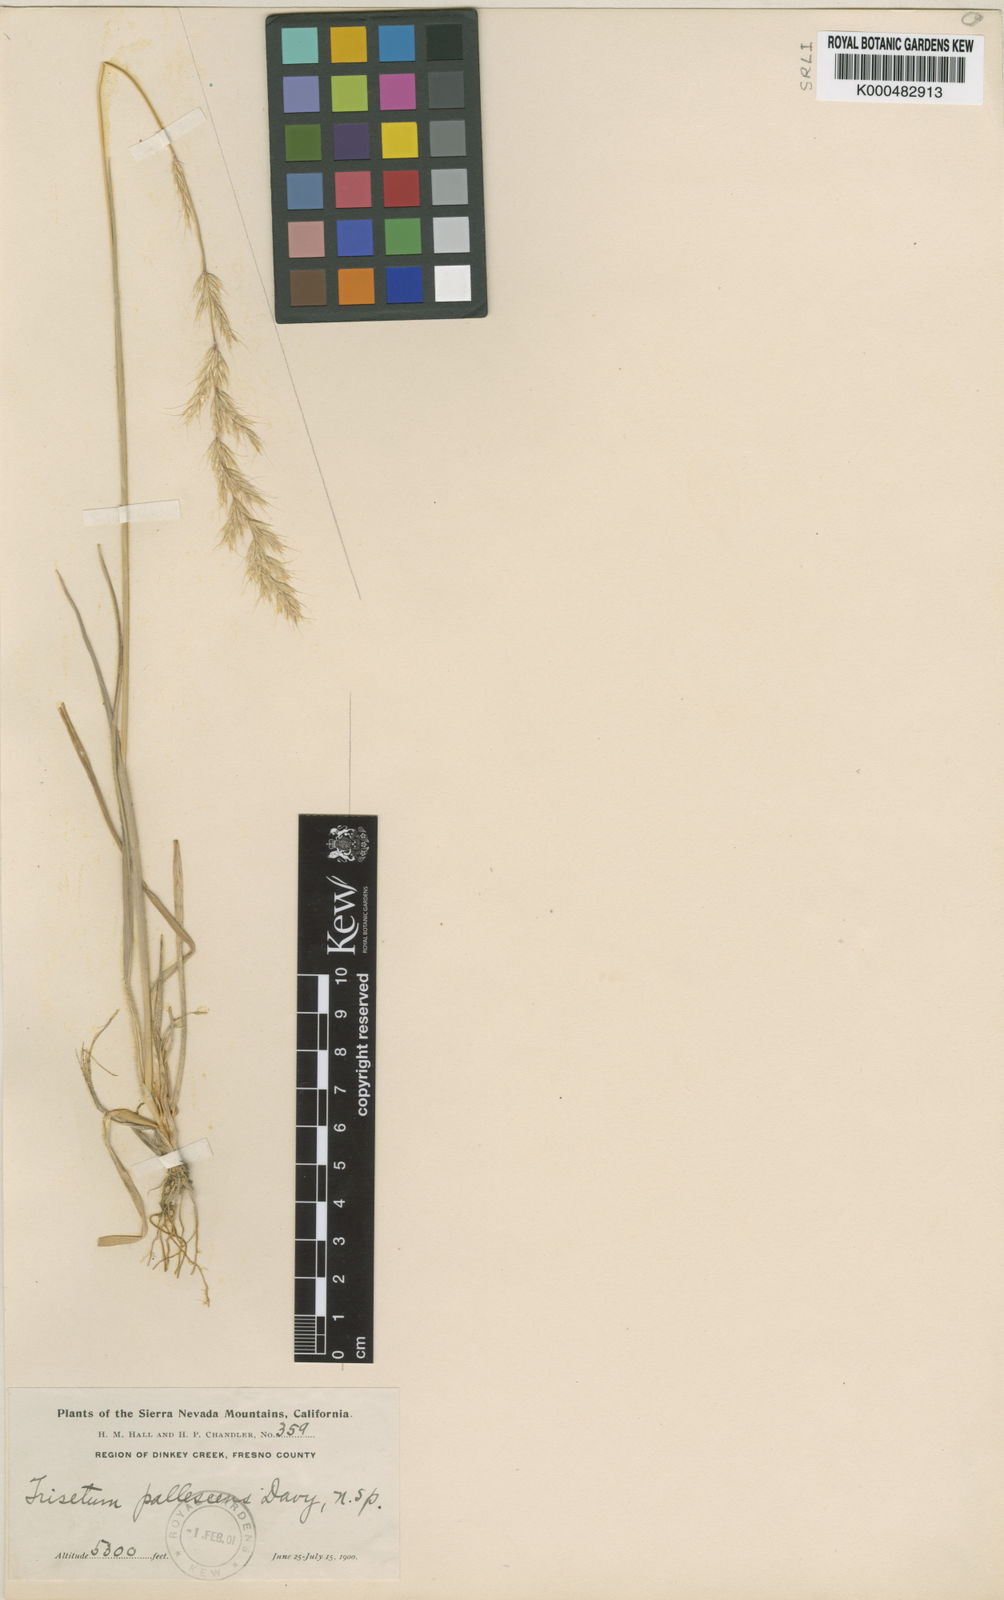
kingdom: Plantae
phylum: Tracheophyta
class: Liliopsida
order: Poales
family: Poaceae
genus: Graphephorum
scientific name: Graphephorum canescens
